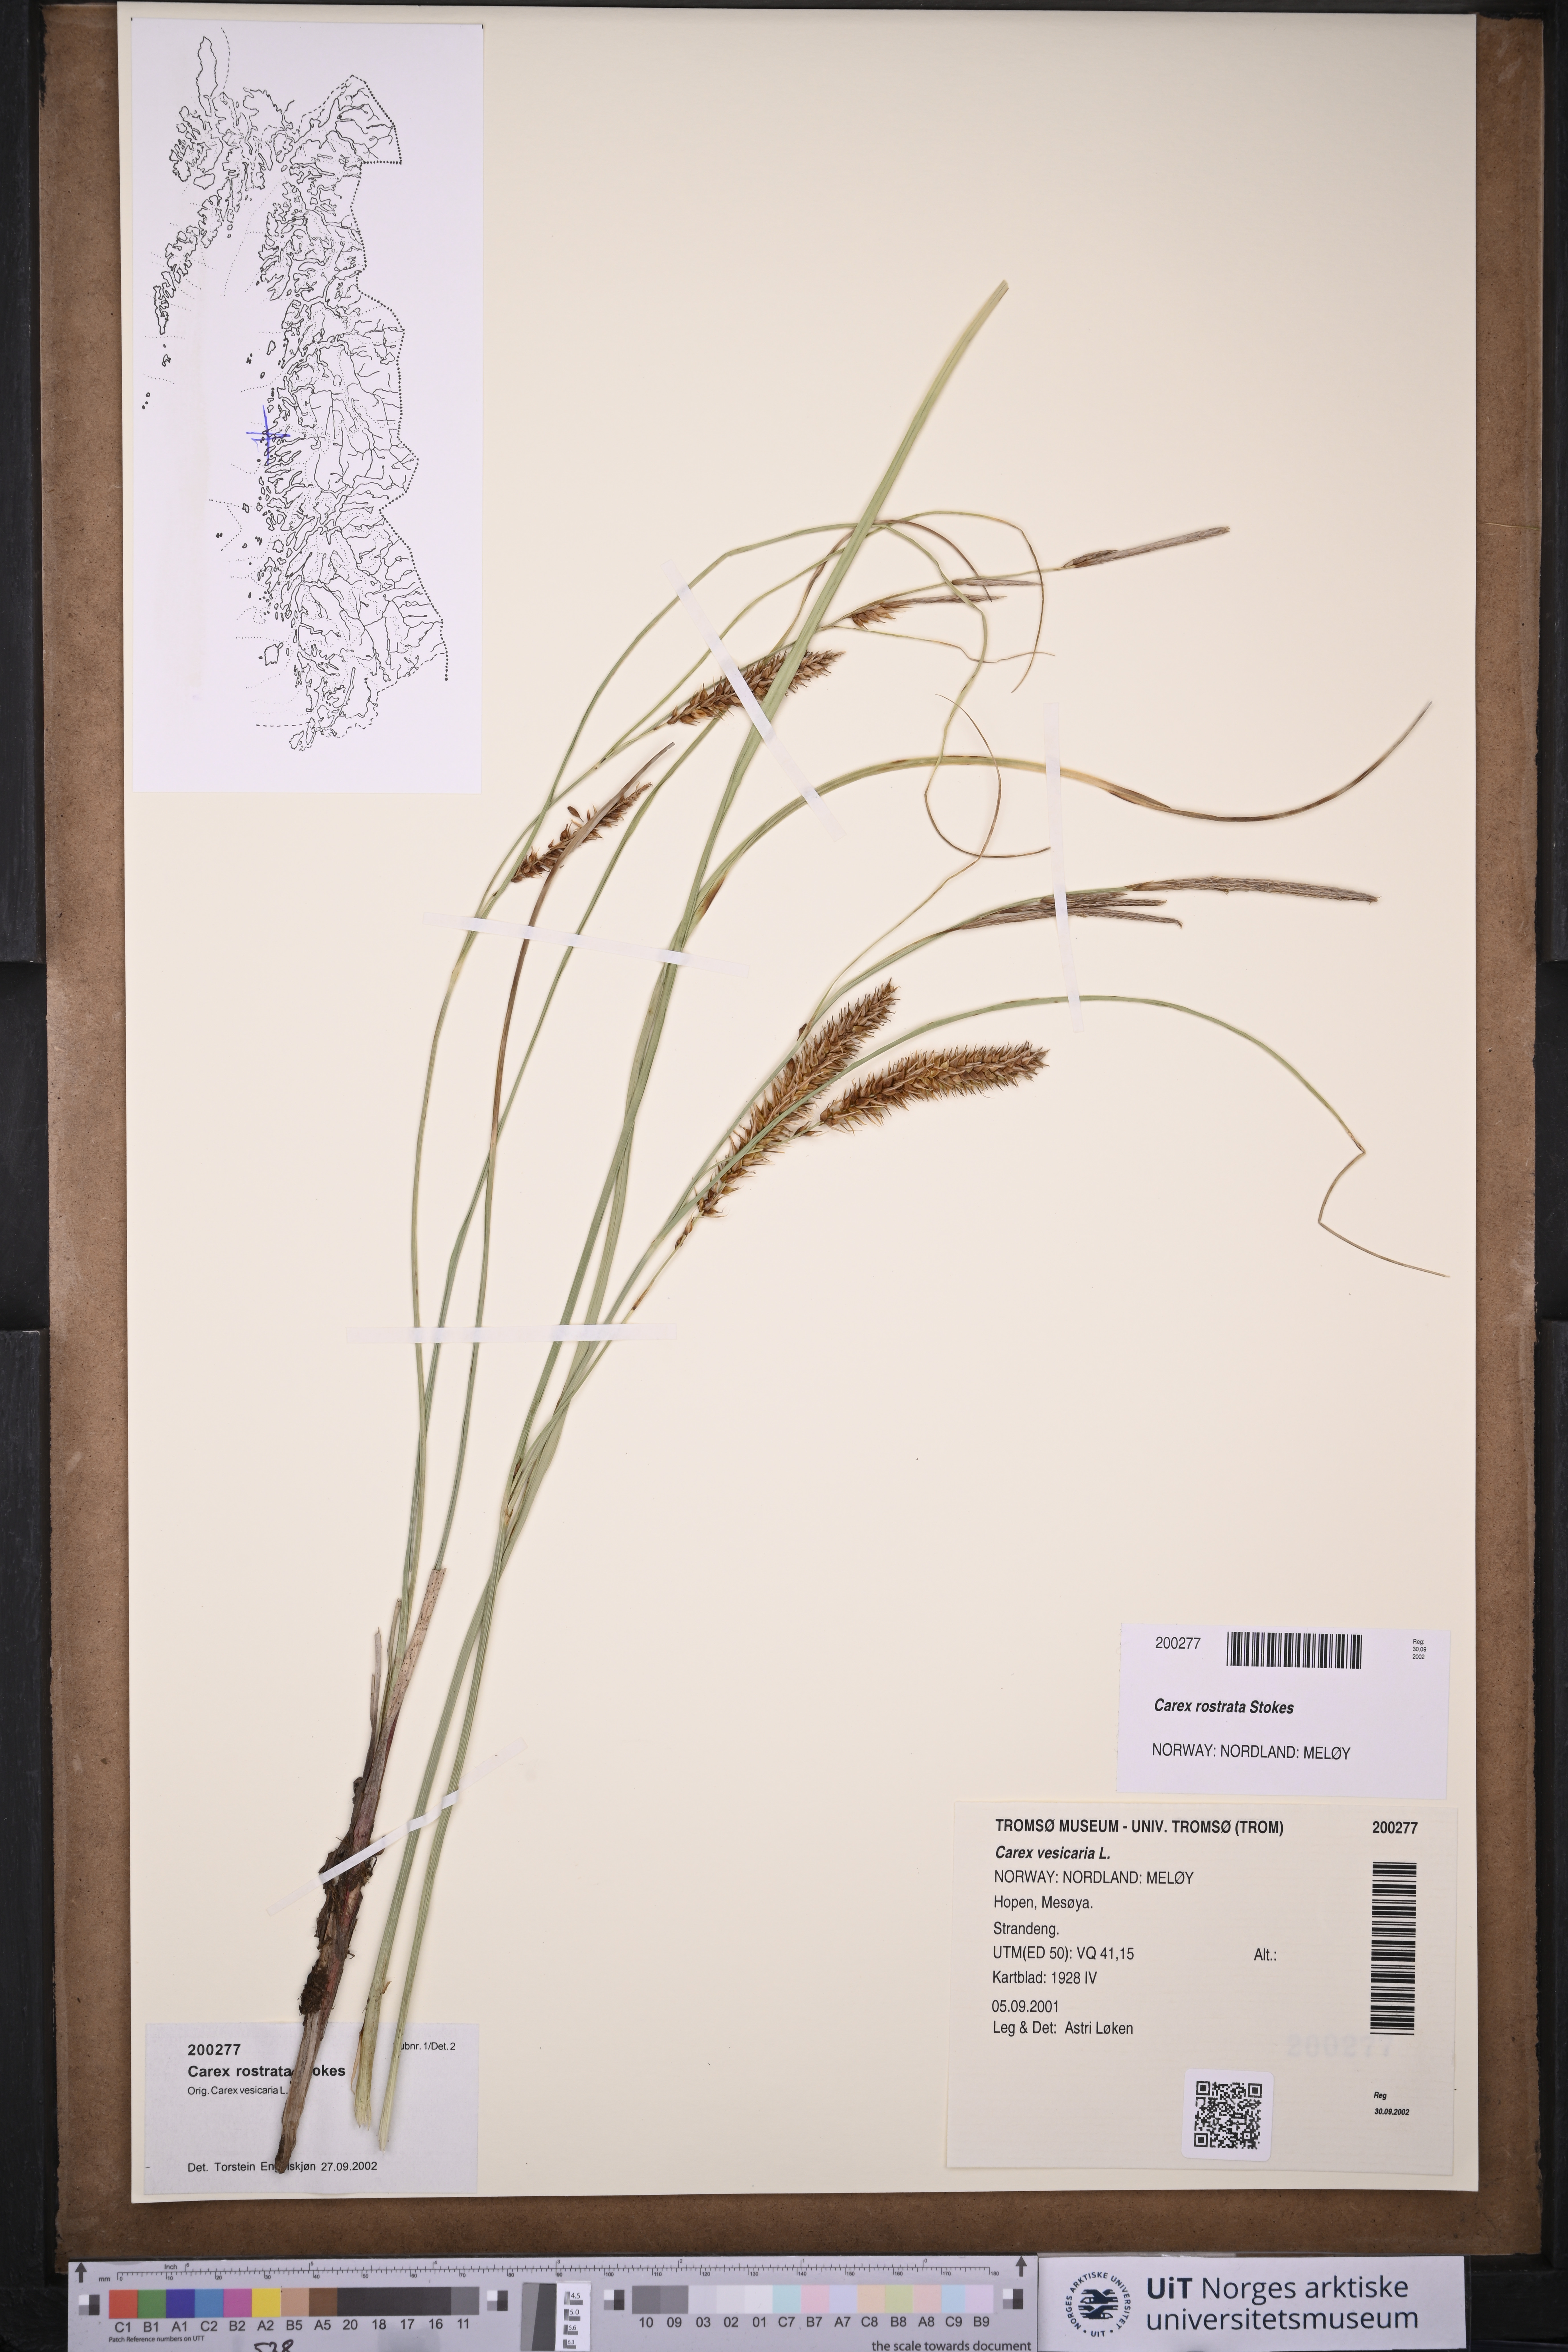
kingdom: Plantae
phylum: Tracheophyta
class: Liliopsida
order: Poales
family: Cyperaceae
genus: Carex
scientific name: Carex rostrata
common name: Bottle sedge
